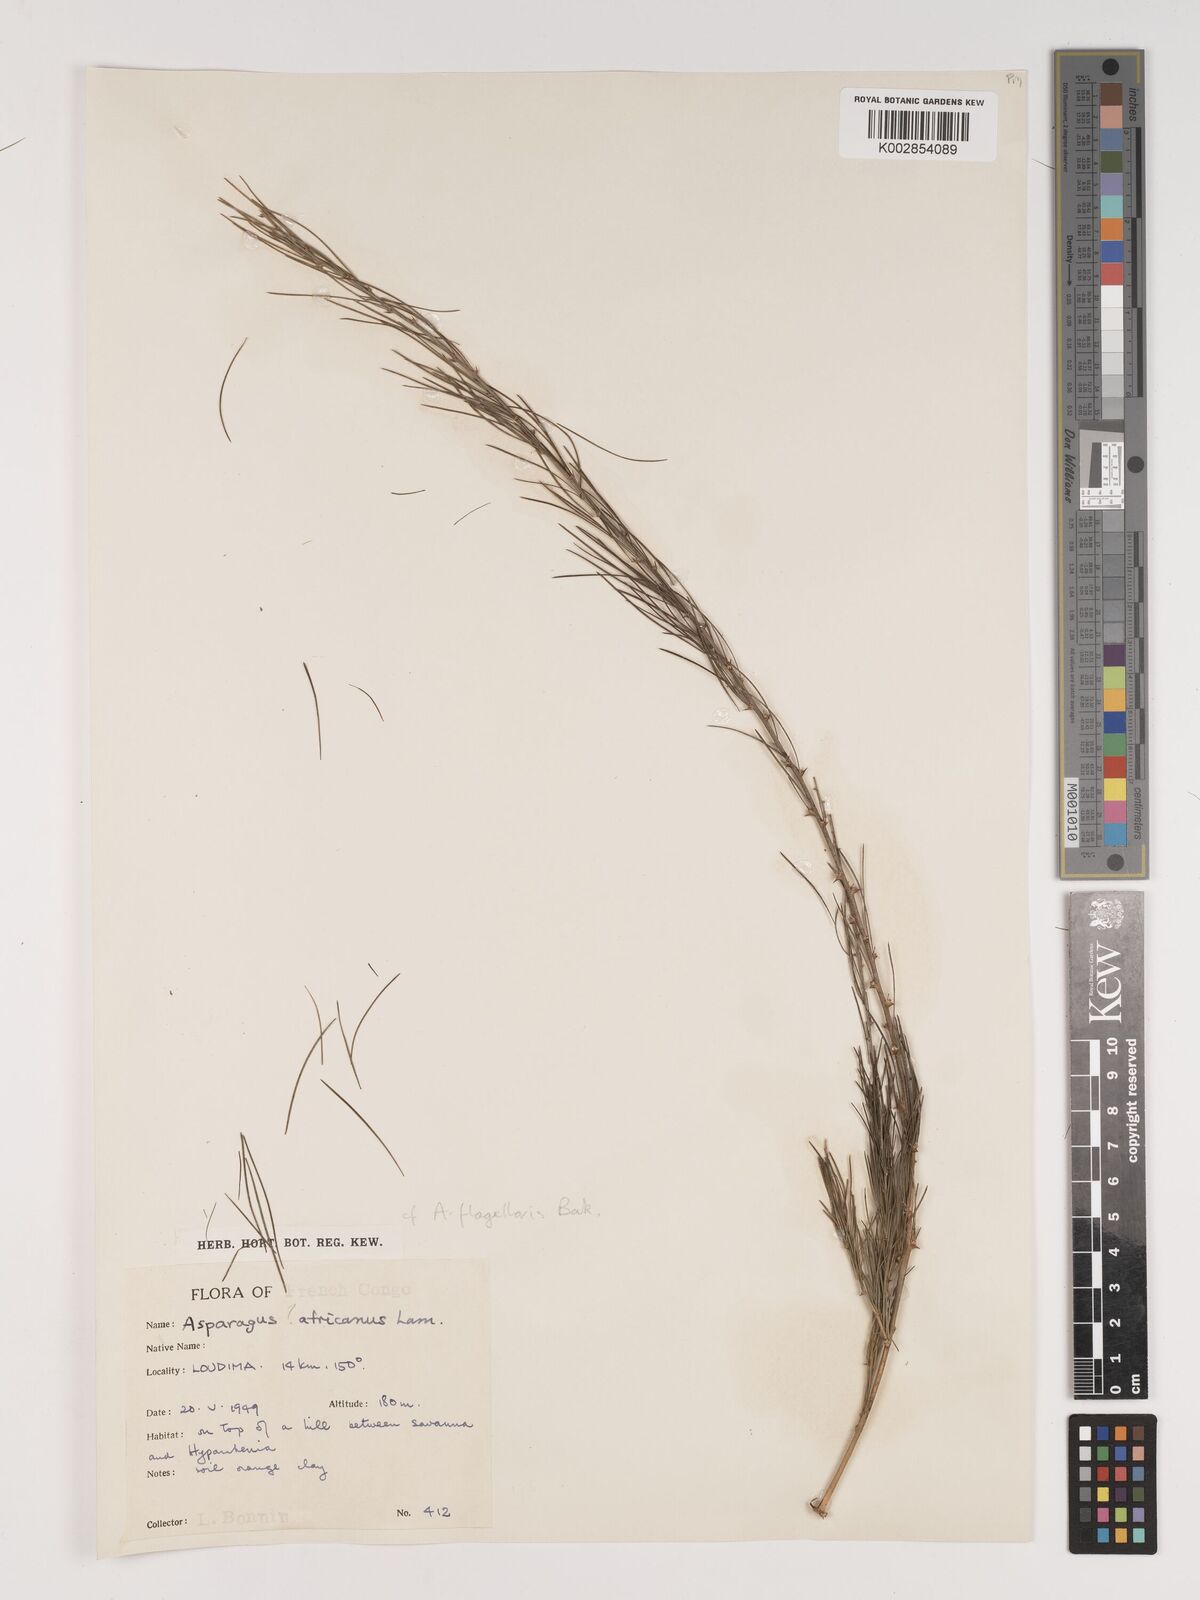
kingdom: Plantae
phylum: Tracheophyta
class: Liliopsida
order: Asparagales
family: Asparagaceae
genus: Asparagus
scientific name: Asparagus flagellaris
